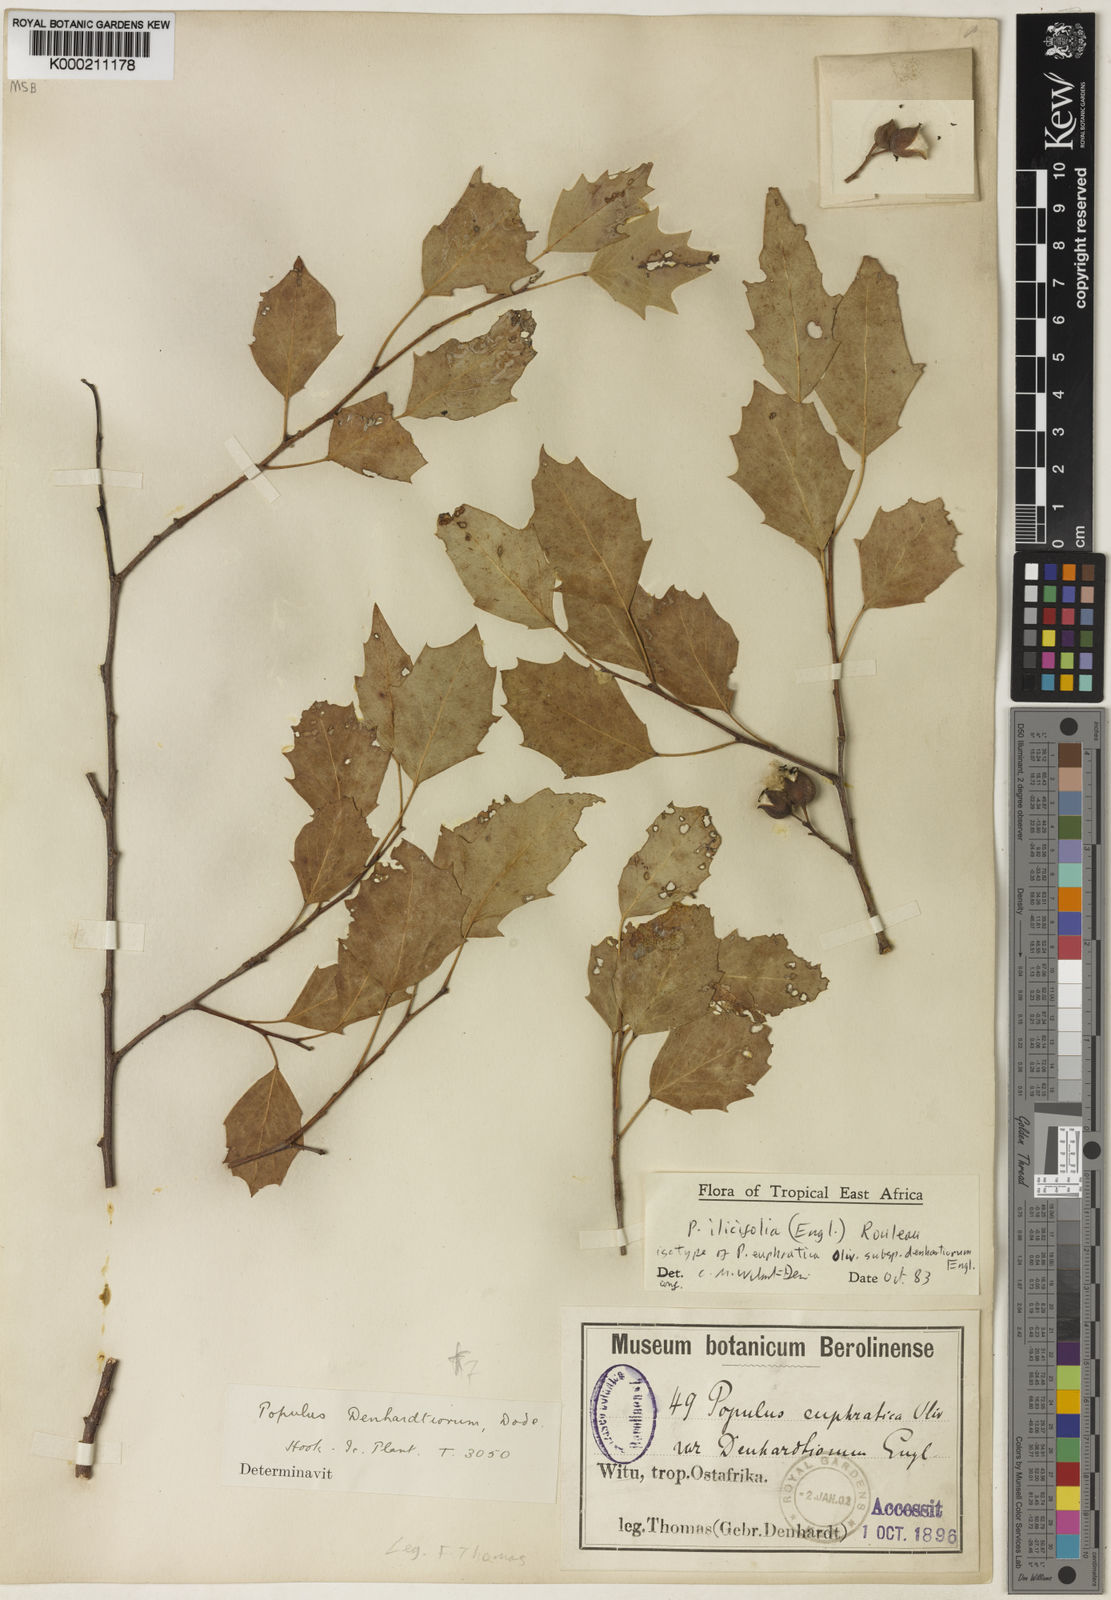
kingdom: Plantae
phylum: Tracheophyta
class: Magnoliopsida
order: Malpighiales
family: Salicaceae
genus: Populus
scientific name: Populus ilicifolia
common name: Tana river poplar
